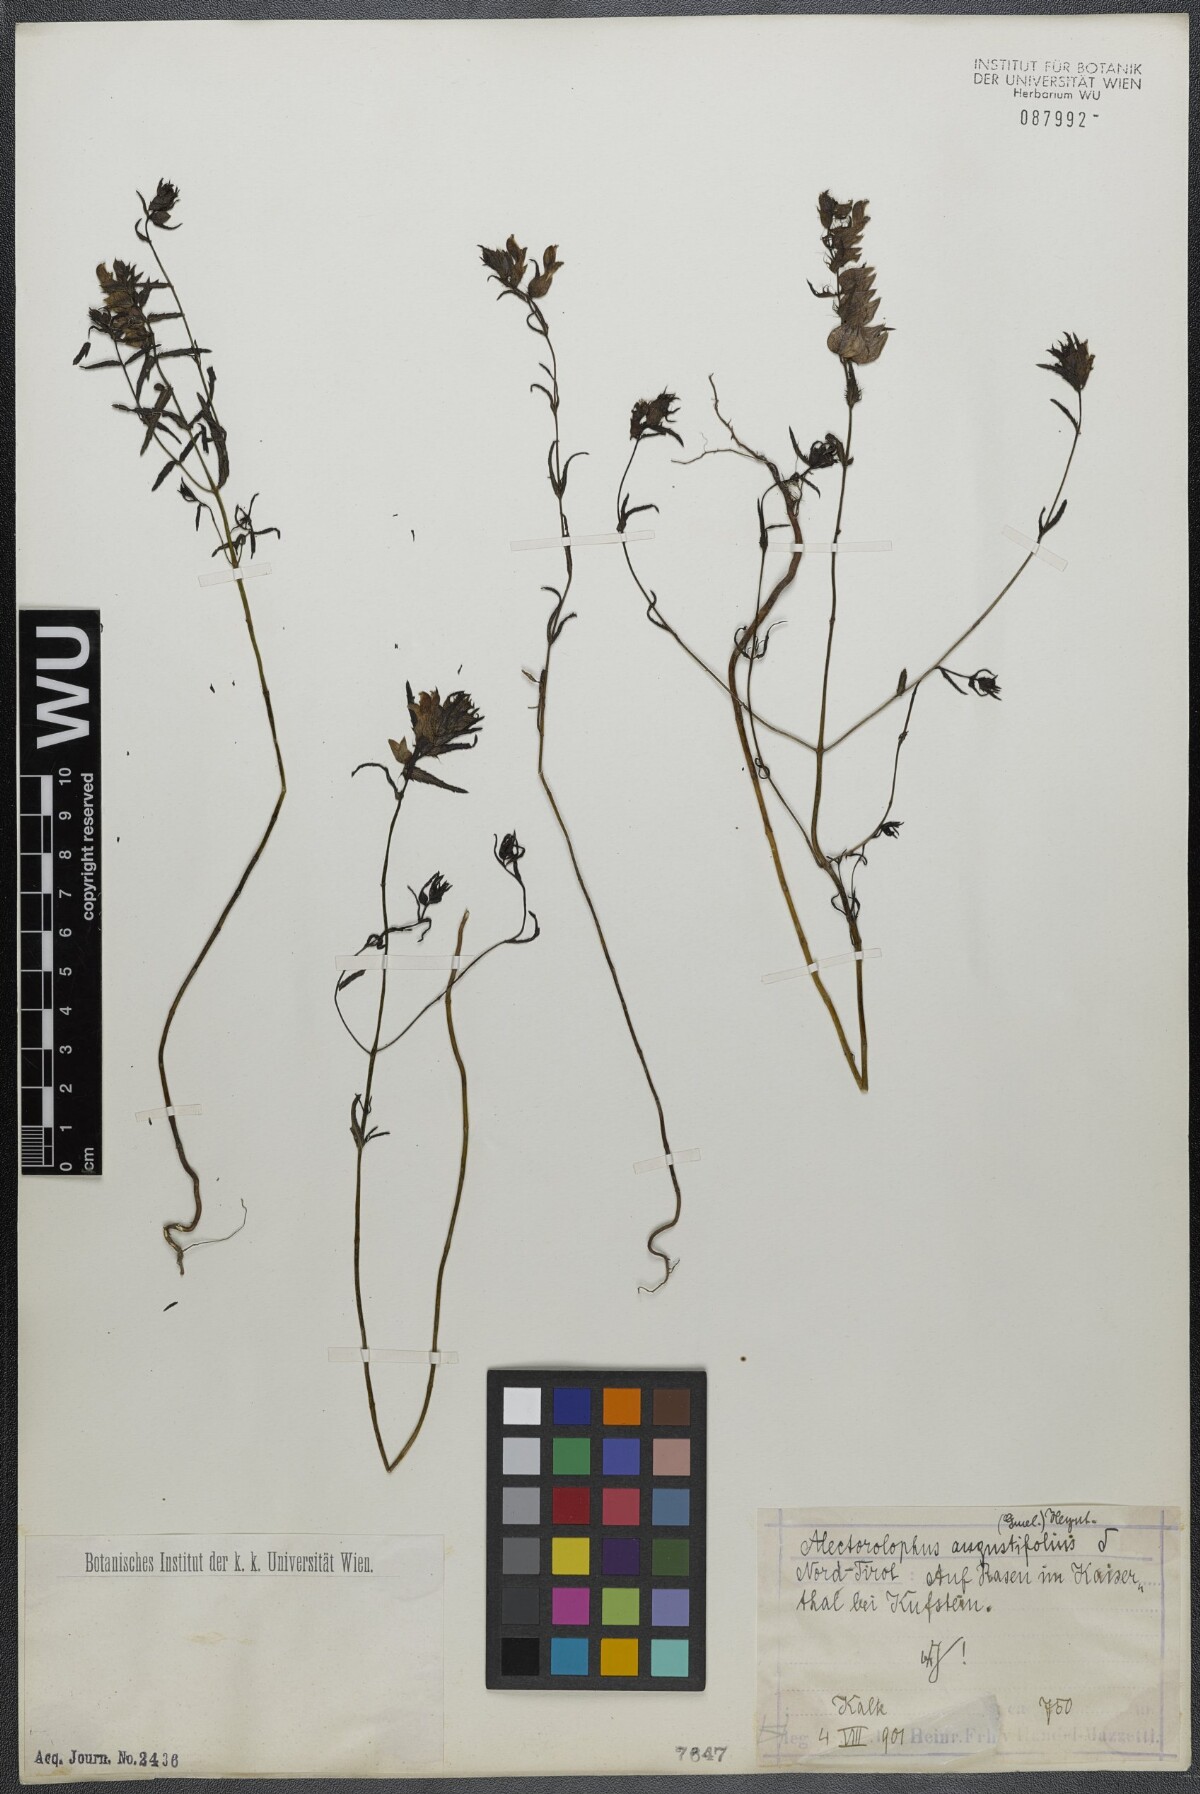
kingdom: Plantae
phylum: Tracheophyta
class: Magnoliopsida
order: Lamiales
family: Orobanchaceae
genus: Rhinanthus
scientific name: Rhinanthus
